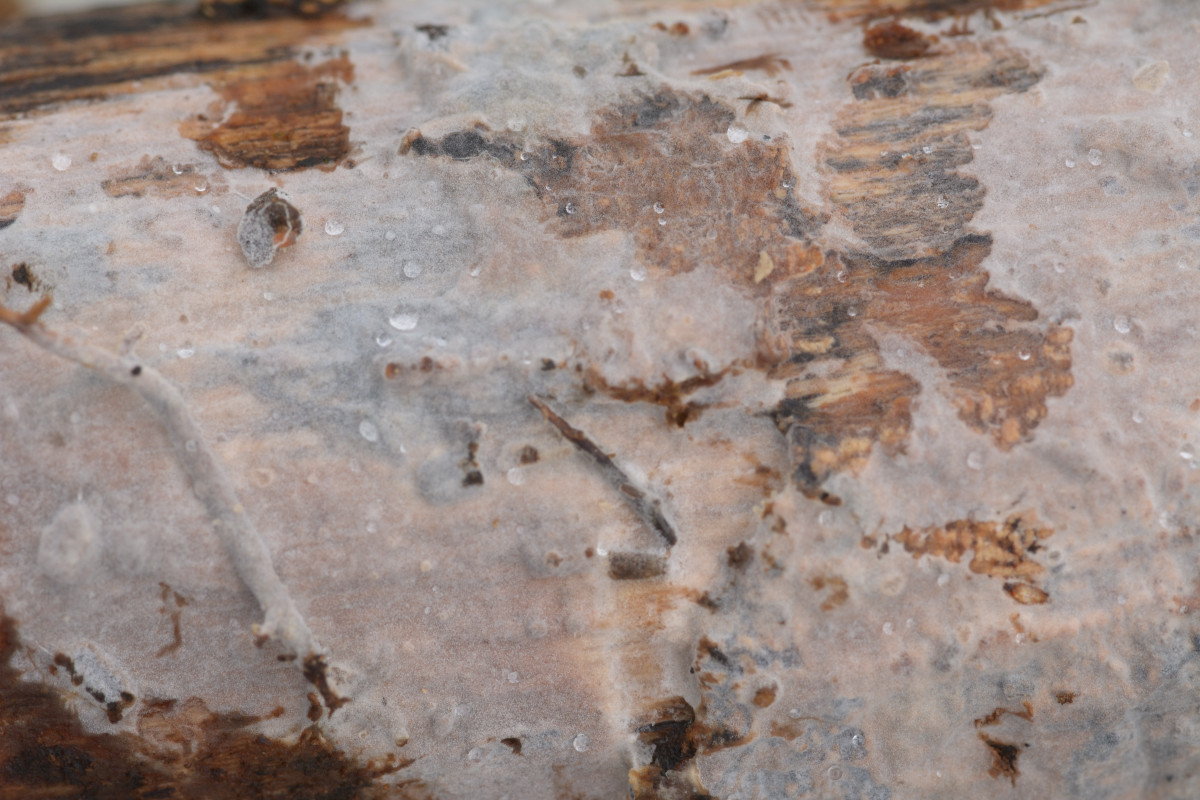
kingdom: Fungi
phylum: Basidiomycota
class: Tremellomycetes
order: Tremellales
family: Exidiaceae
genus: Exidiopsis
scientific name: Exidiopsis effusa
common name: smuk bævrehinde
